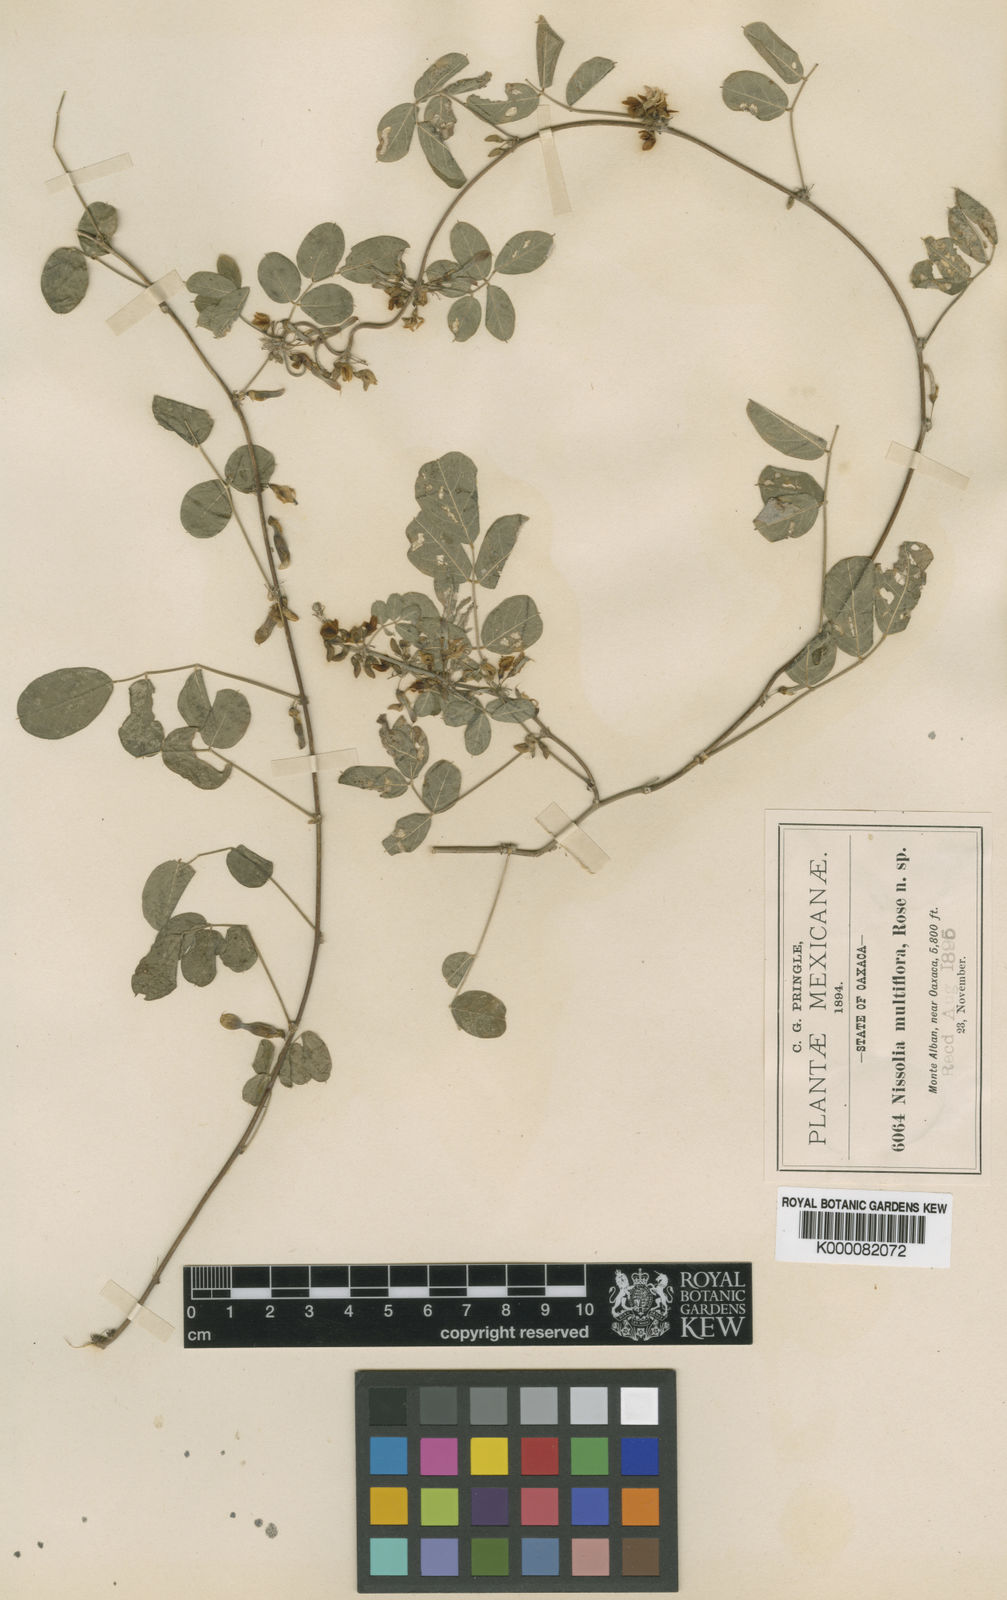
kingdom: Plantae
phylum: Tracheophyta
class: Magnoliopsida
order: Fabales
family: Fabaceae
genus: Nissolia
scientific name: Nissolia microptera
